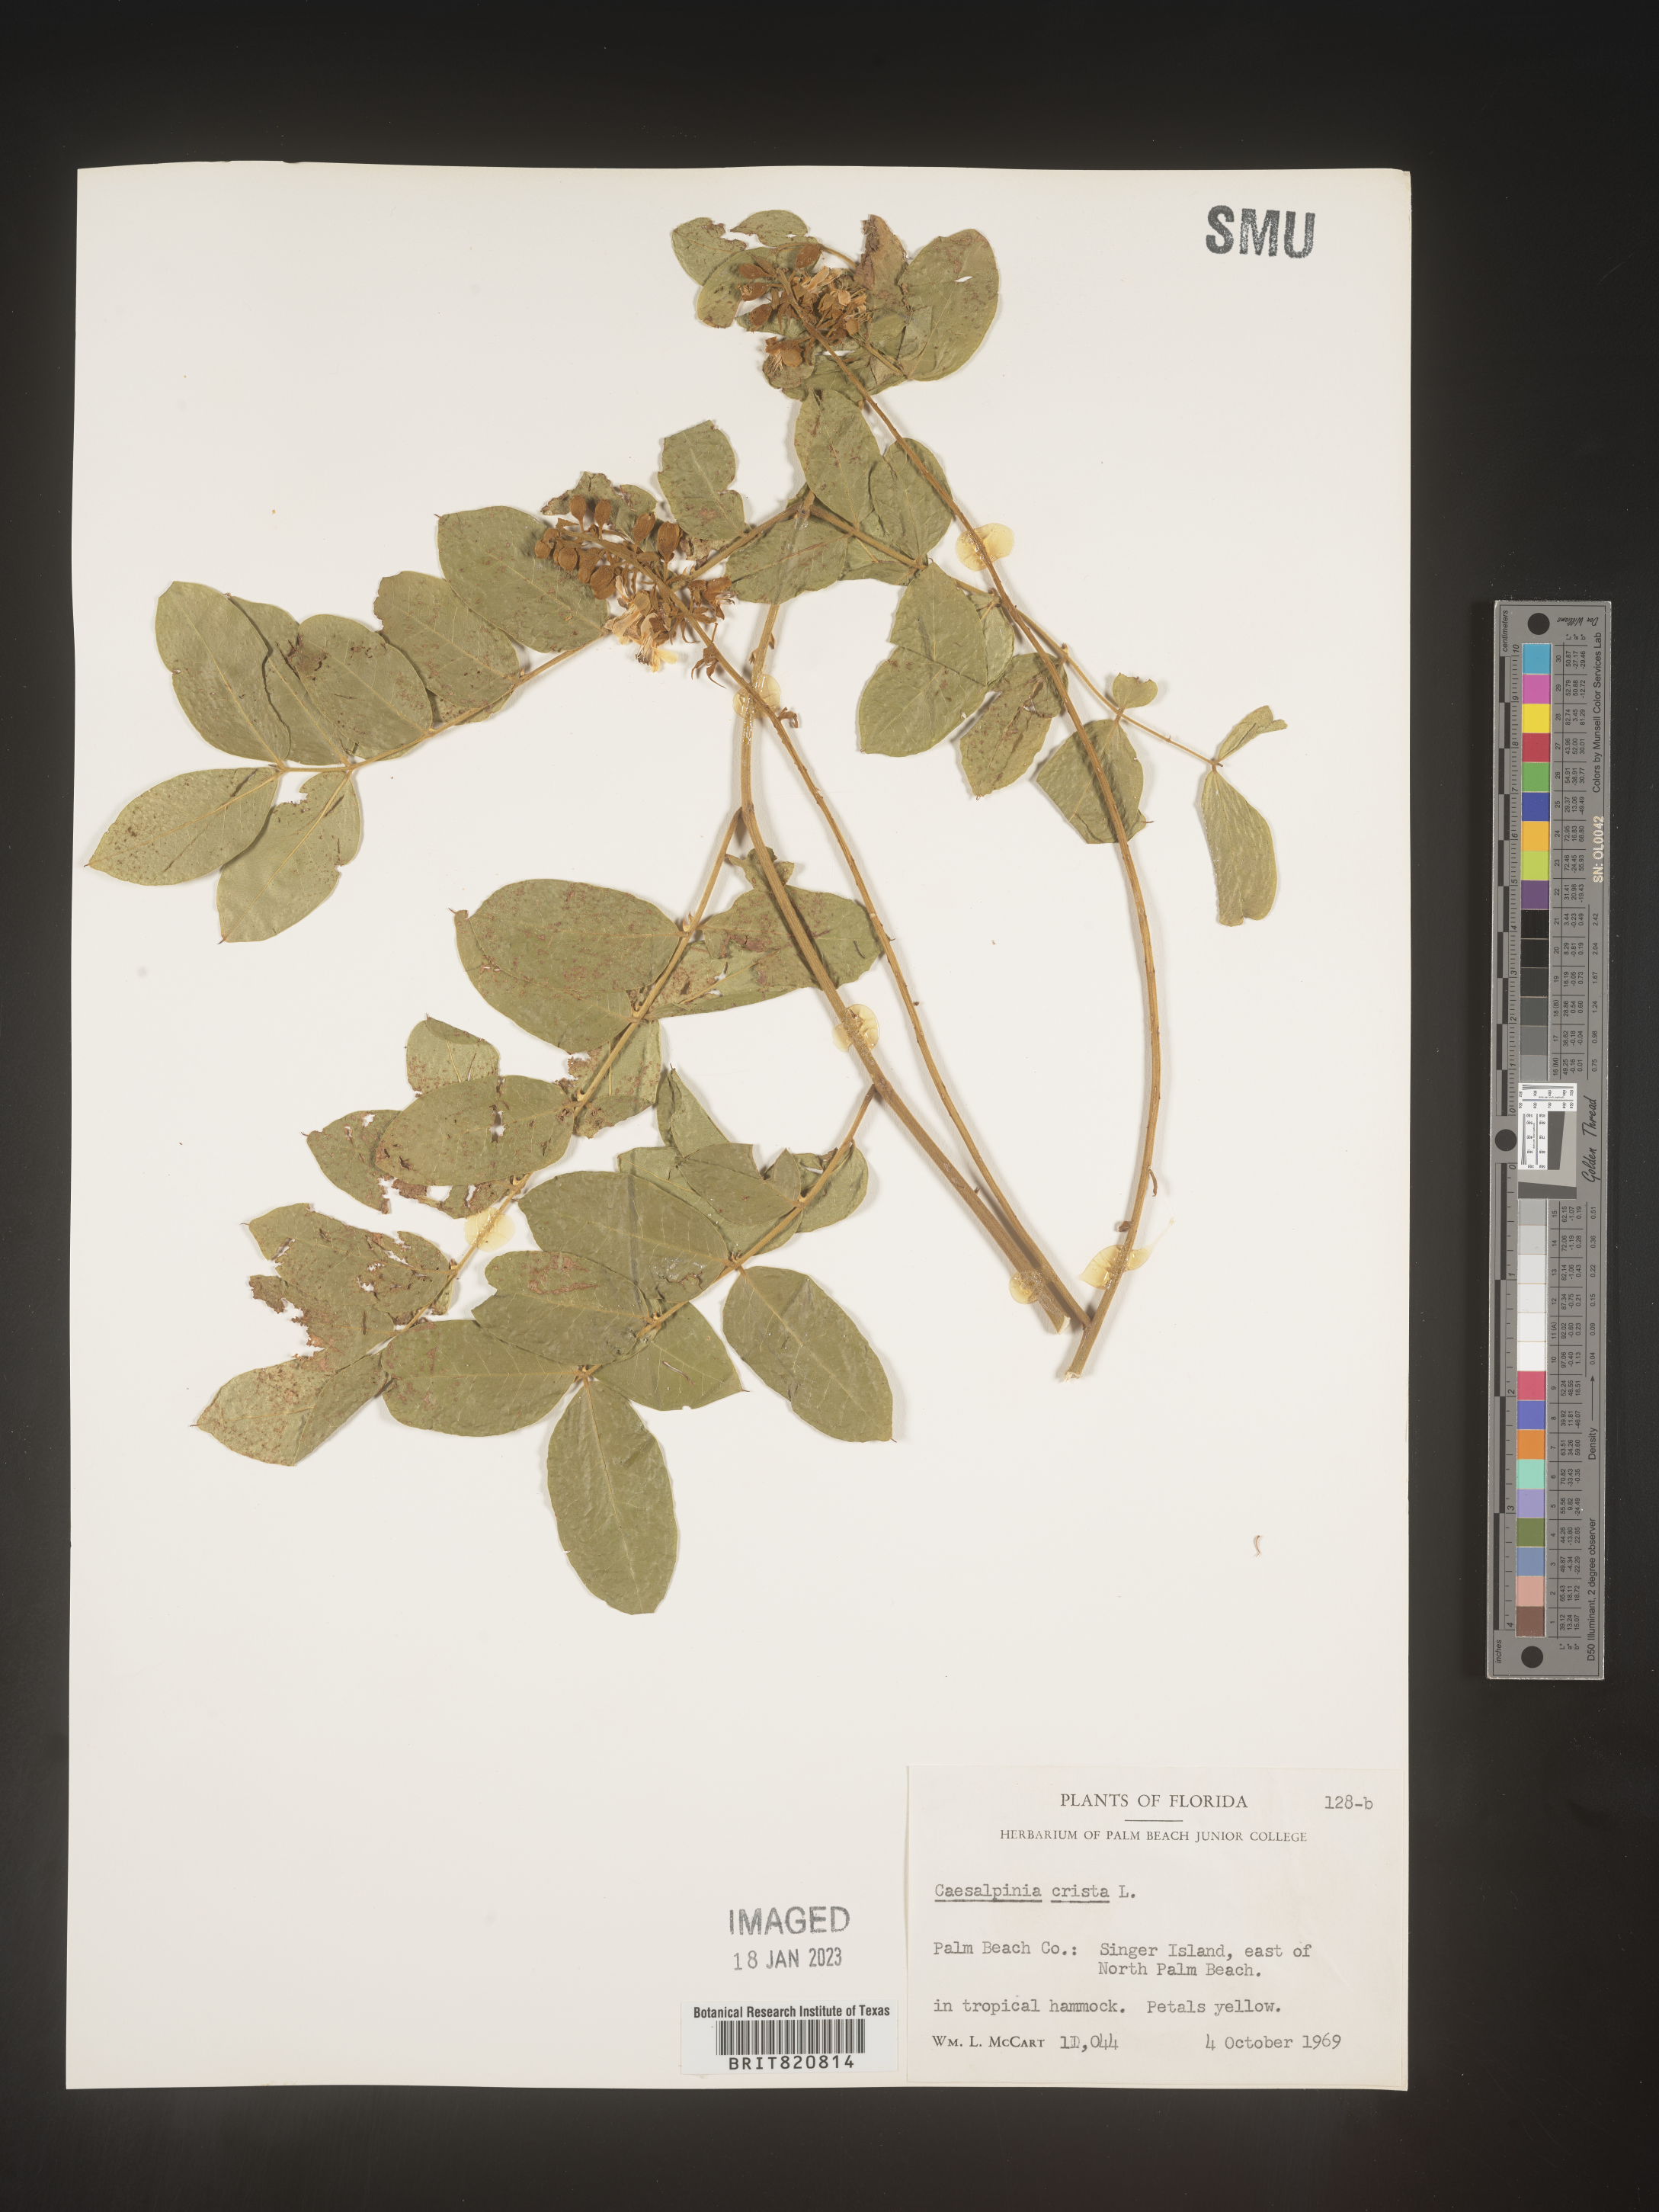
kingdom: Plantae
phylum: Tracheophyta
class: Magnoliopsida
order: Fabales
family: Fabaceae
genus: Guilandina
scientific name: Guilandina
